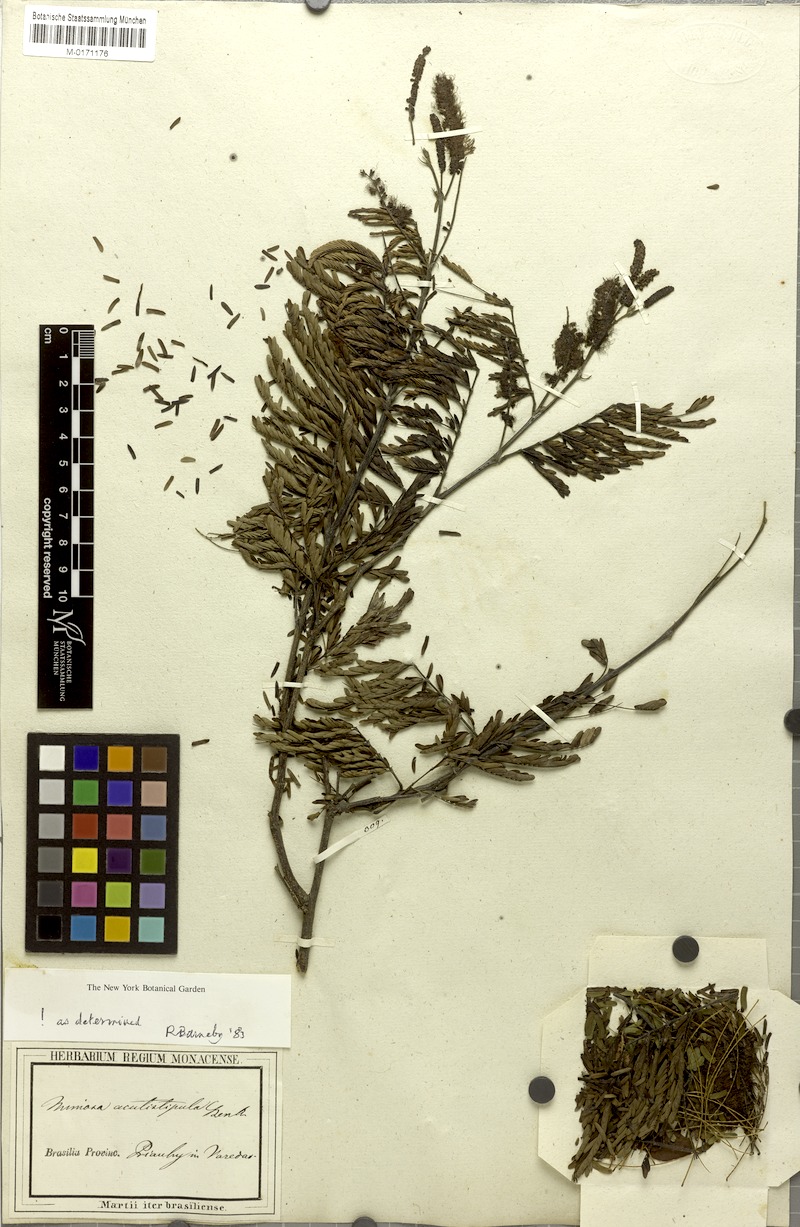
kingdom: Plantae
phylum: Tracheophyta
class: Magnoliopsida
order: Fabales
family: Fabaceae
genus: Mimosa
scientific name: Mimosa acutistipula
